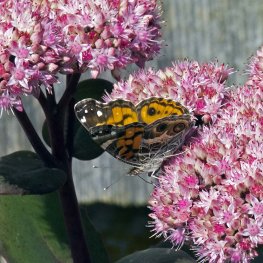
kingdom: Animalia
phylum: Arthropoda
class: Insecta
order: Lepidoptera
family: Nymphalidae
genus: Vanessa
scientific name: Vanessa virginiensis
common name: American Lady
